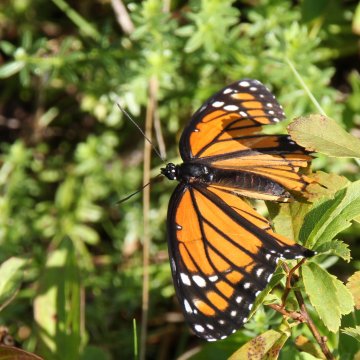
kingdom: Animalia
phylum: Arthropoda
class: Insecta
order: Lepidoptera
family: Nymphalidae
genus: Limenitis
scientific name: Limenitis archippus
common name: Viceroy
